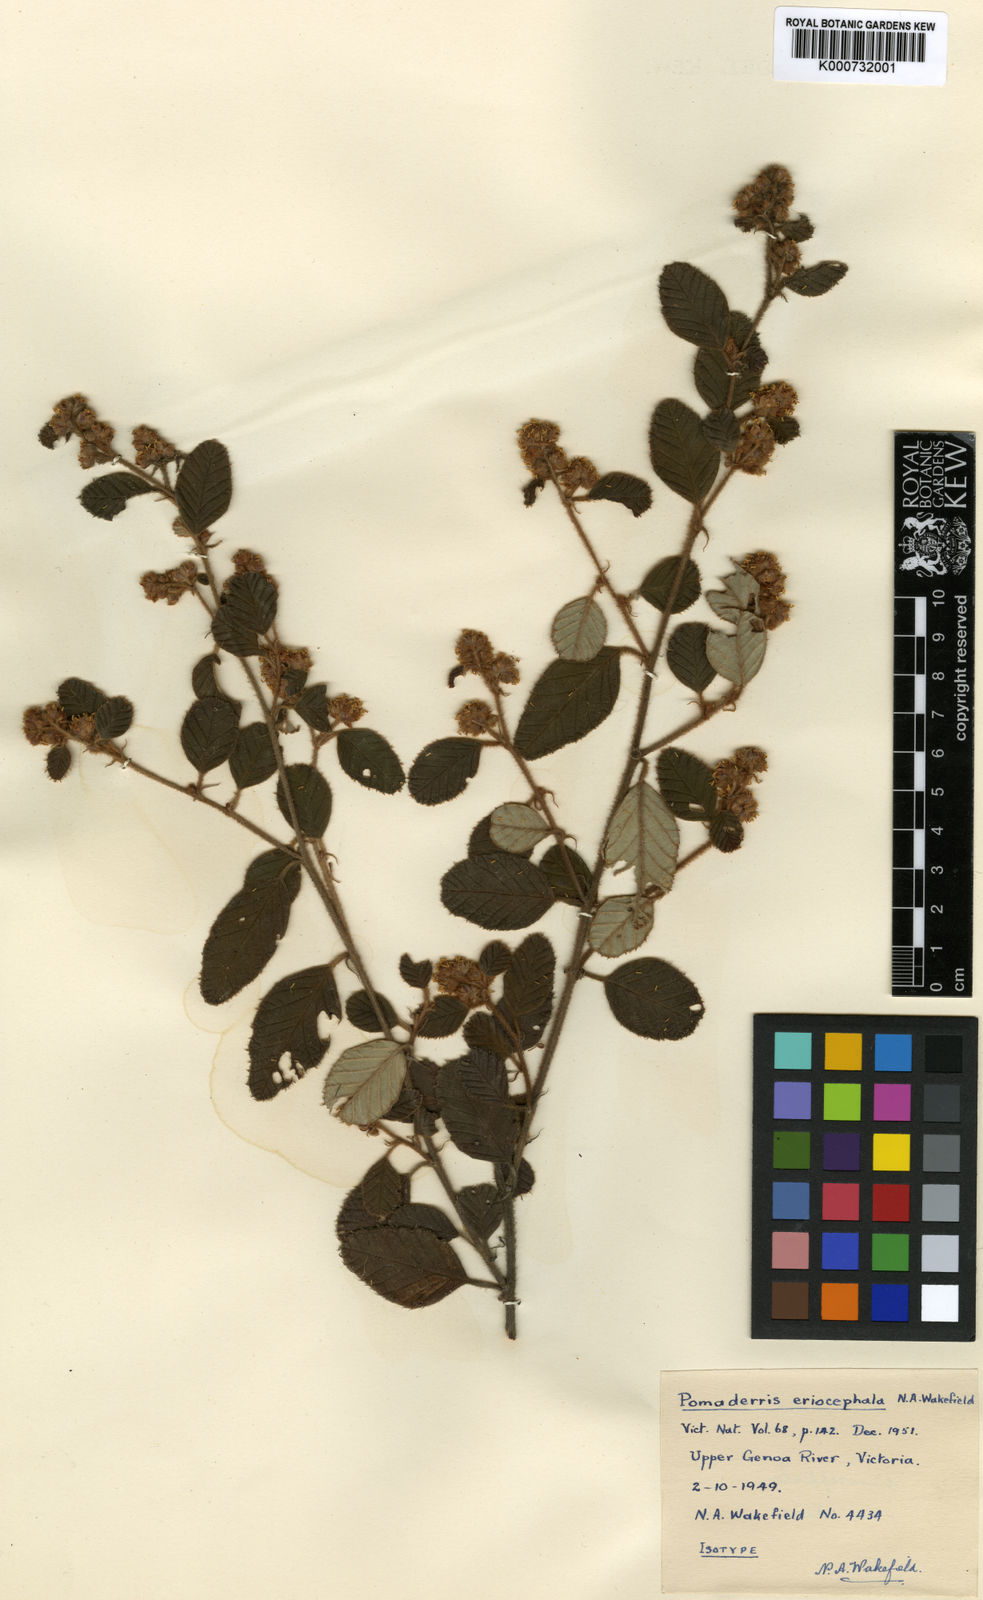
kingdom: Plantae
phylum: Tracheophyta
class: Magnoliopsida
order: Rosales
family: Rhamnaceae
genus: Pomaderris
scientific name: Pomaderris eriocephala
